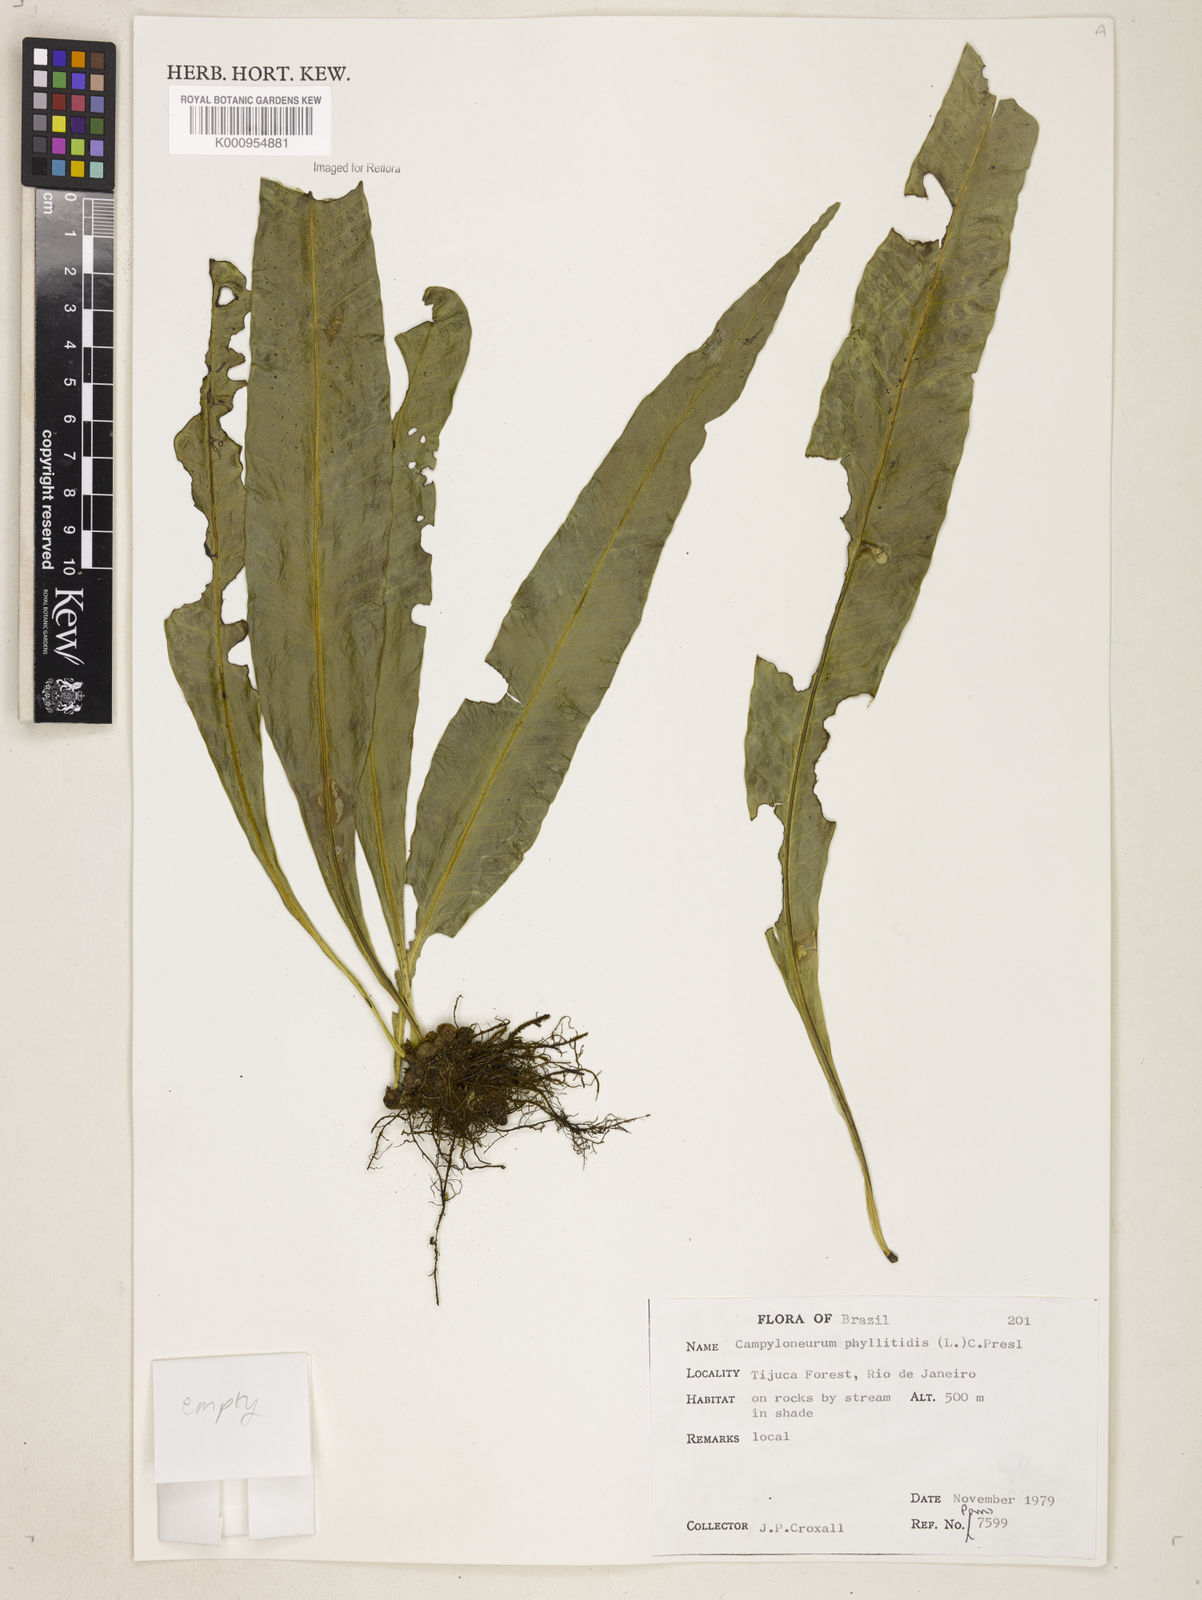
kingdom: Plantae
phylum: Tracheophyta
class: Polypodiopsida
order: Polypodiales
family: Polypodiaceae
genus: Campyloneurum
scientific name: Campyloneurum phyllitidis
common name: Cow-tongue fern
